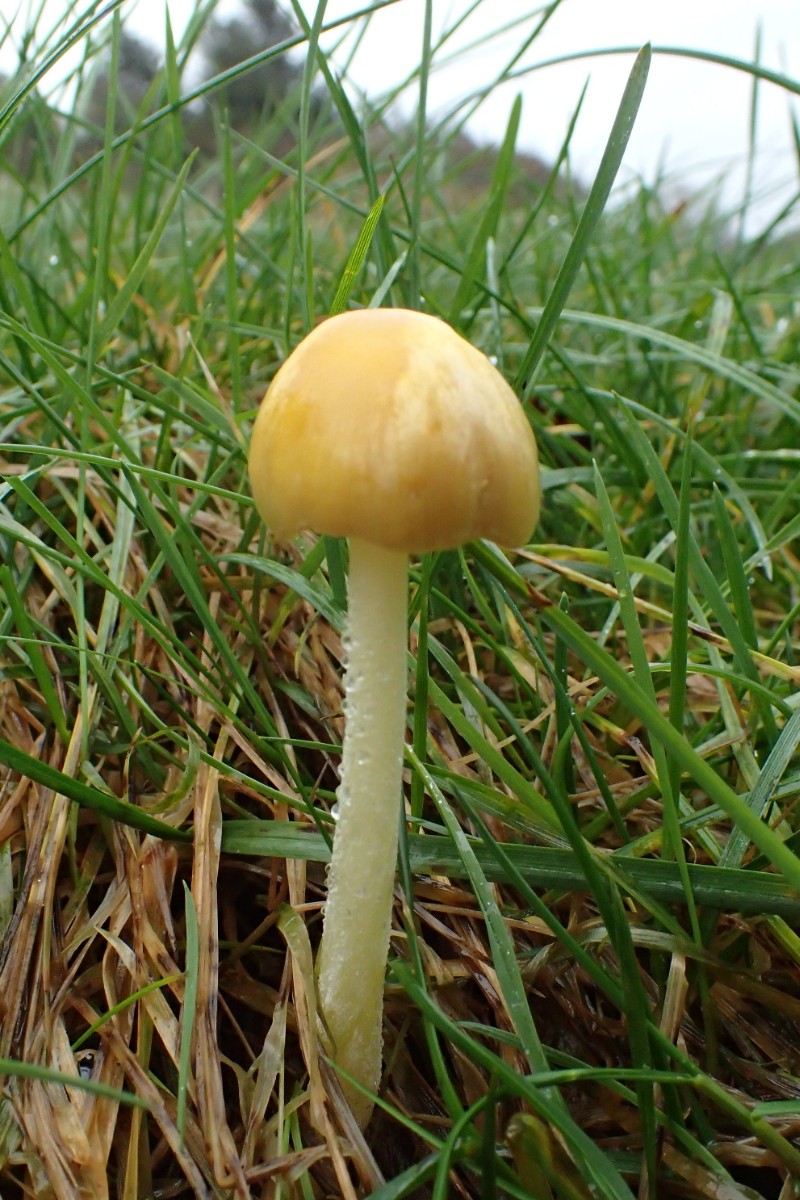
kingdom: Fungi
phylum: Basidiomycota
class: Agaricomycetes
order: Agaricales
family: Bolbitiaceae
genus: Bolbitius
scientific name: Bolbitius titubans
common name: almindelig gulhat
